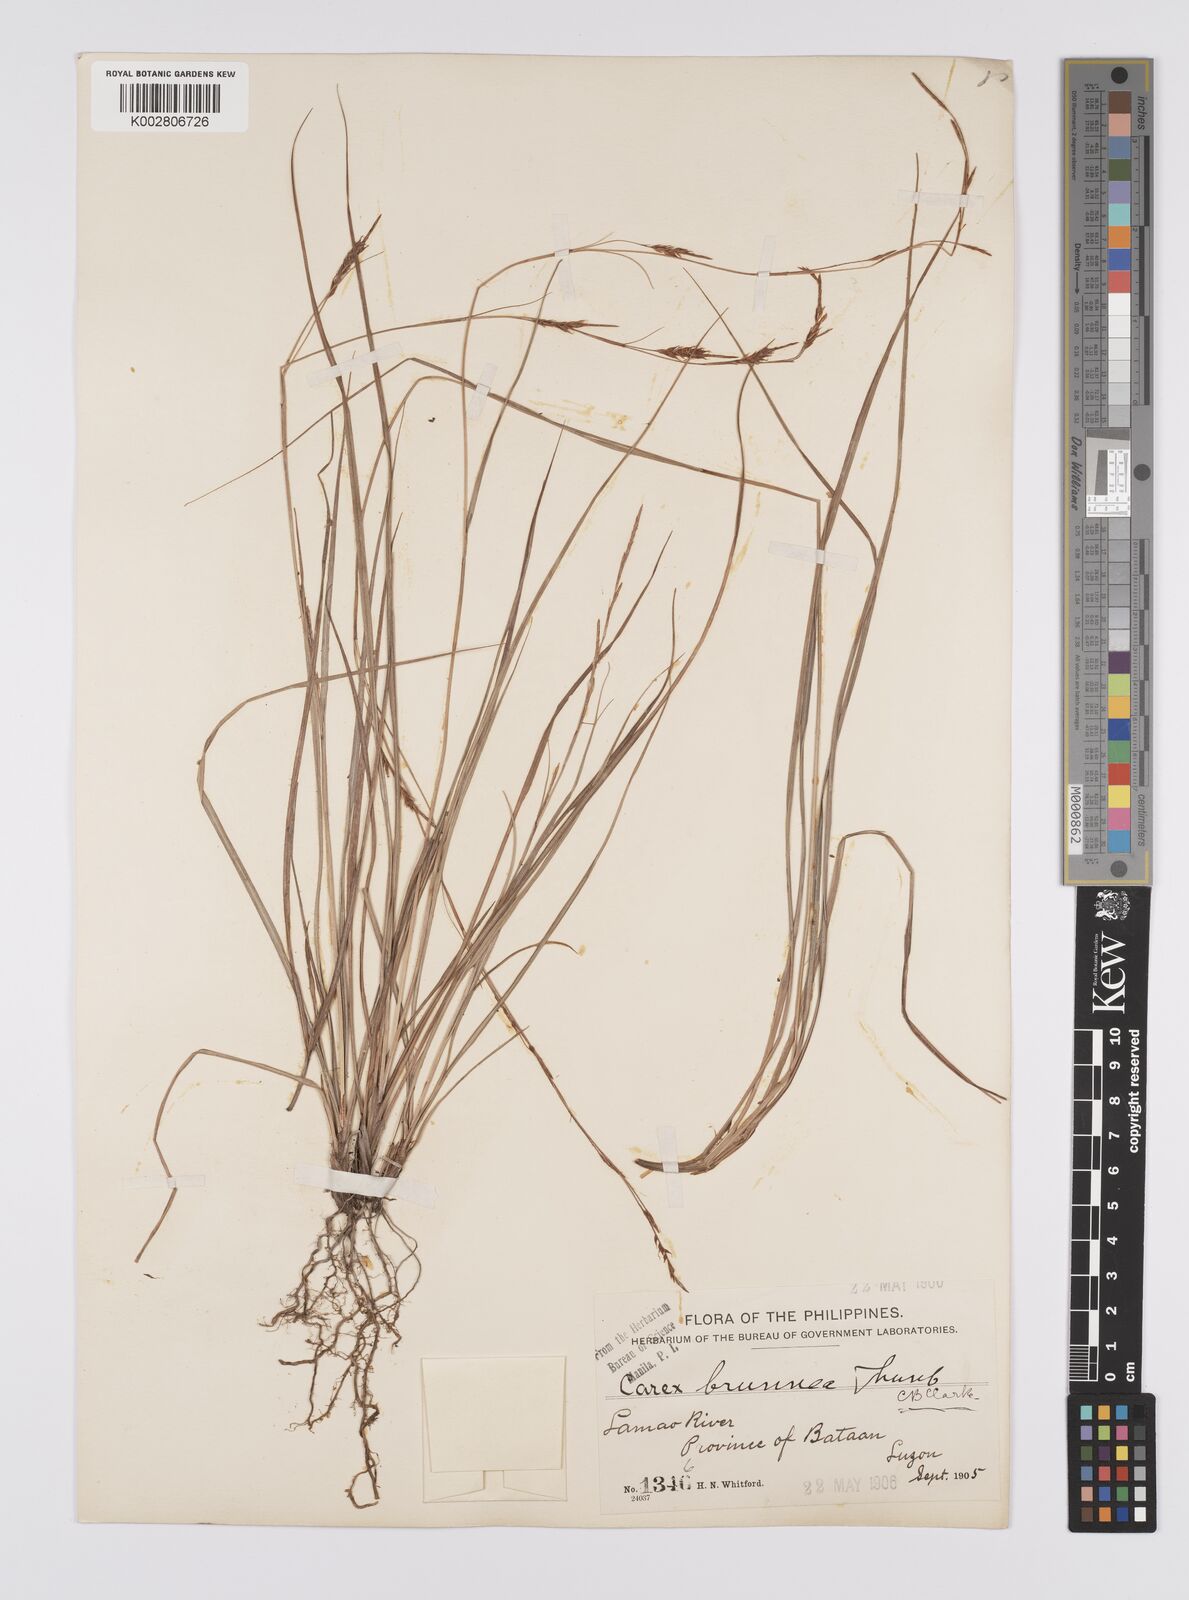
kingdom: Plantae
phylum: Tracheophyta
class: Liliopsida
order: Poales
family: Cyperaceae
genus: Carex
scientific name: Carex brunnea
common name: Greater brown sedge
